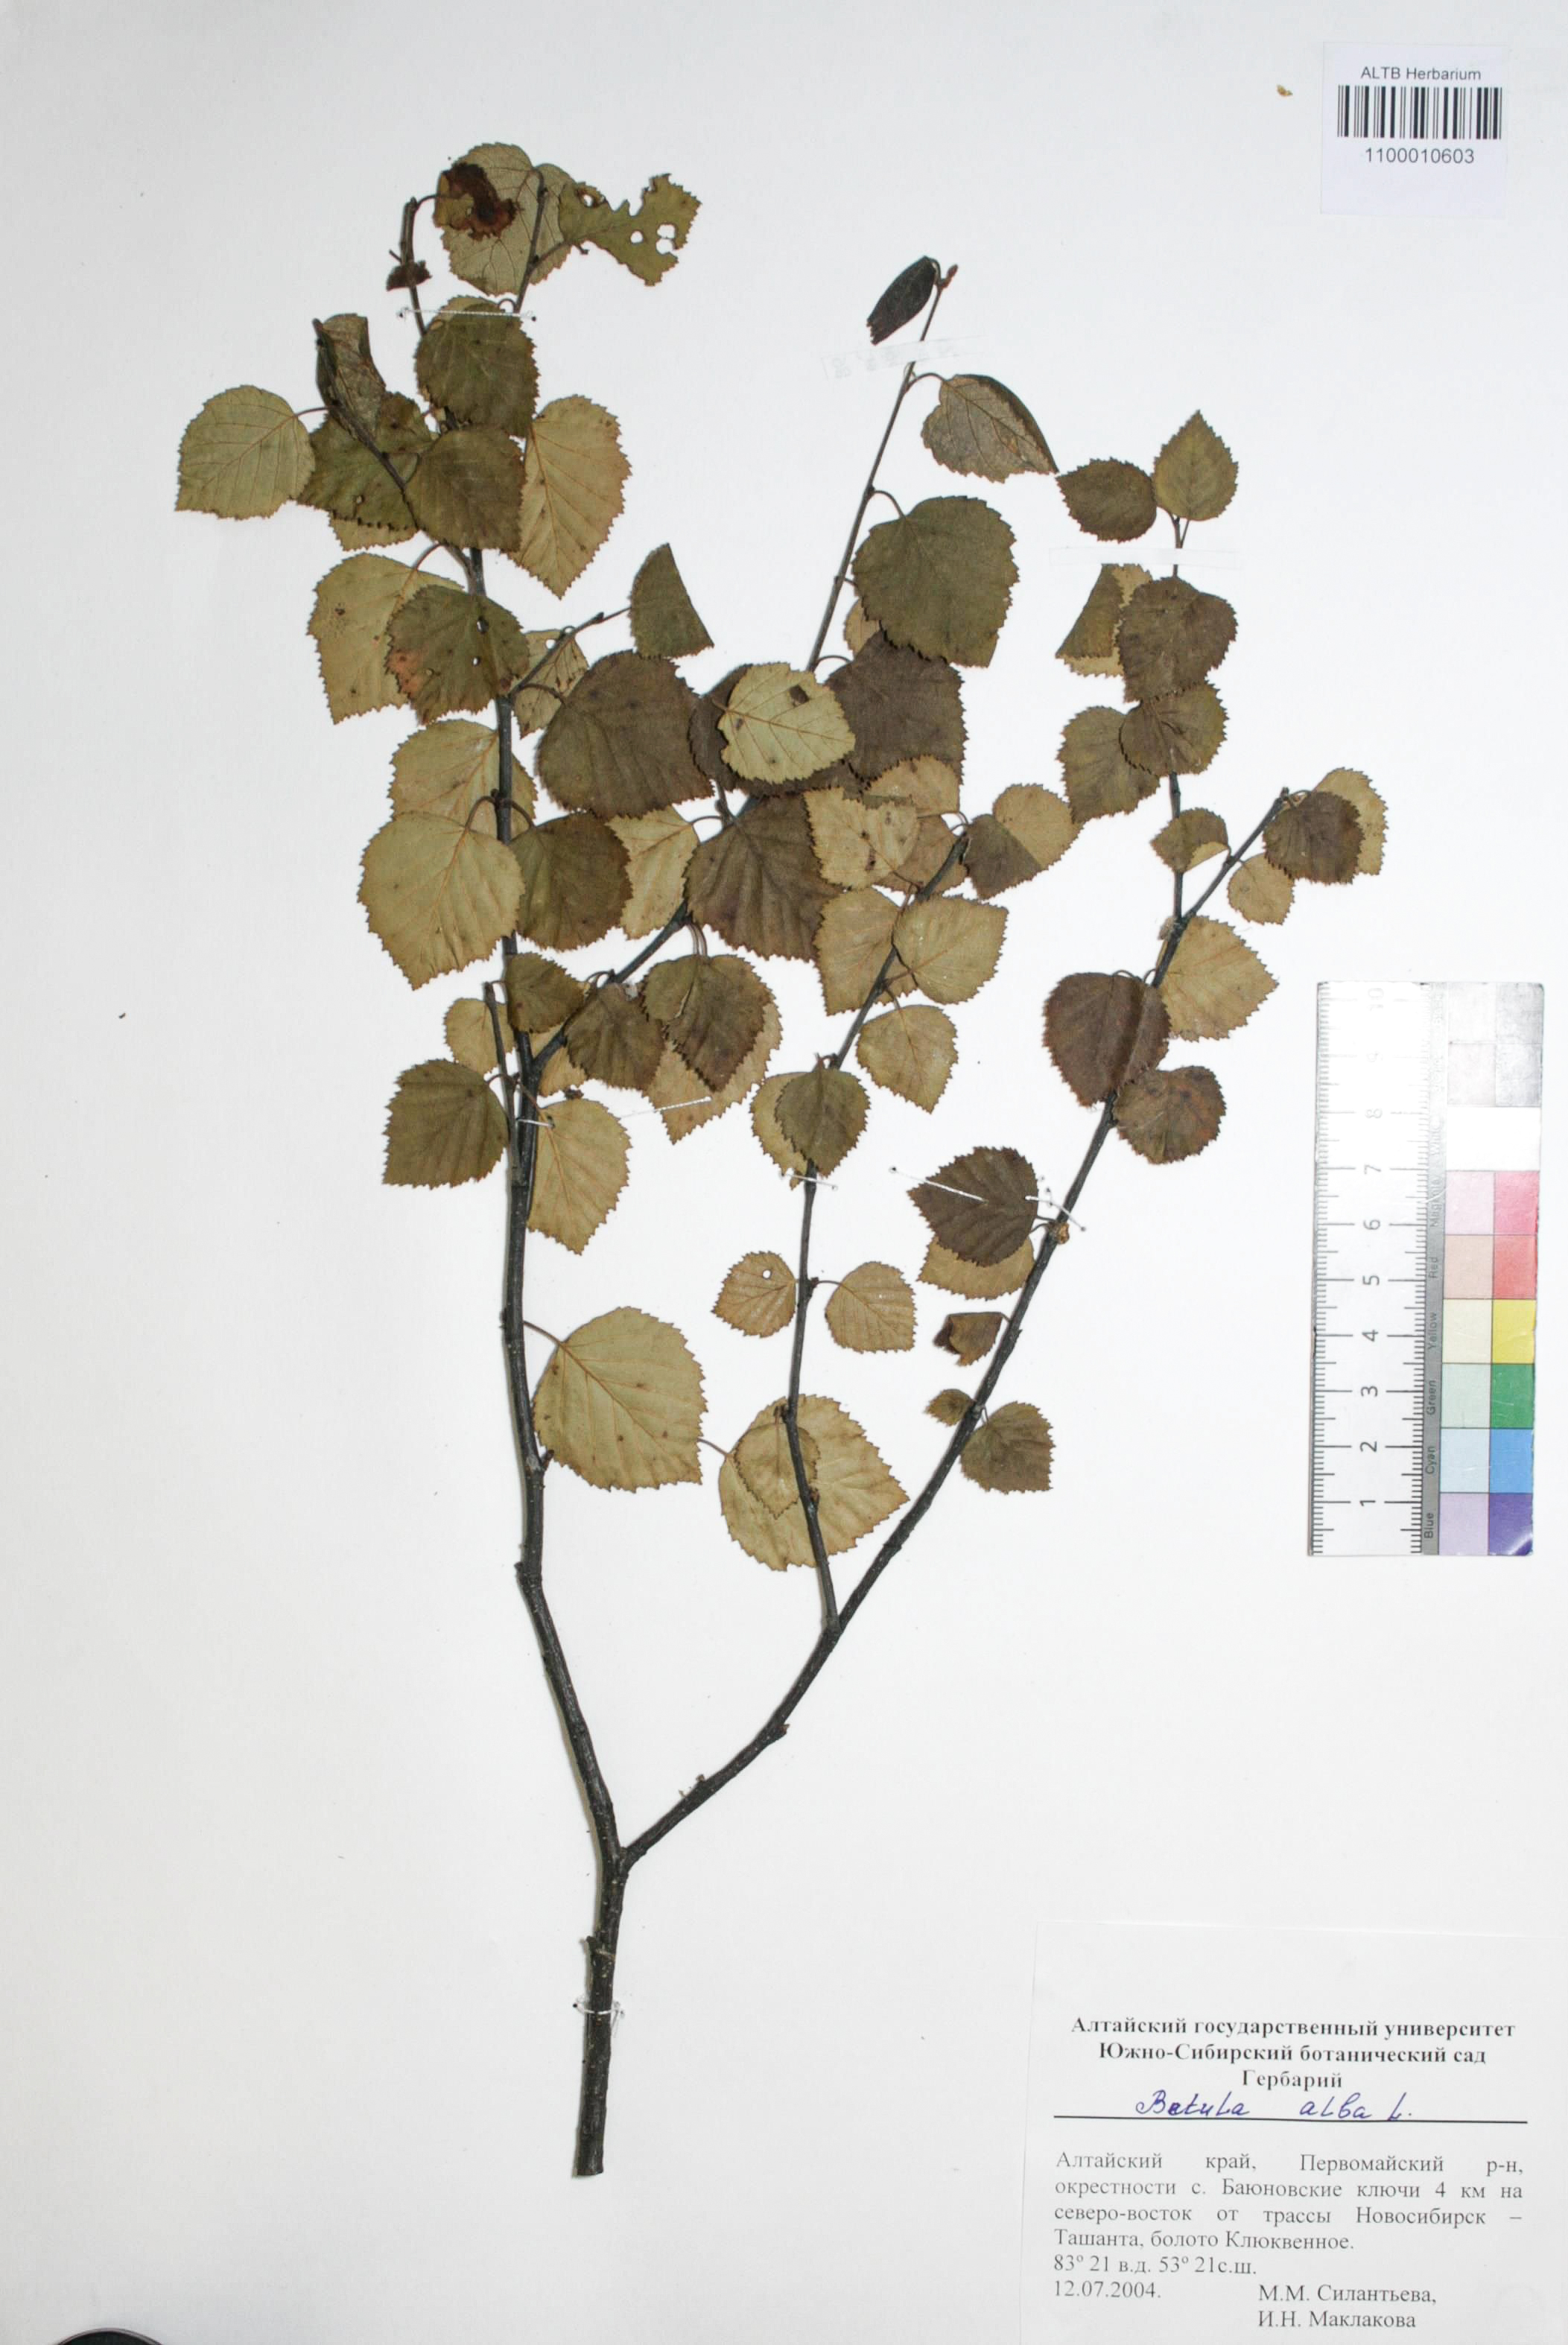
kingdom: Plantae
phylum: Tracheophyta
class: Magnoliopsida
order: Fagales
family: Betulaceae
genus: Betula
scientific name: Betula pubescens
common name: Downy birch
